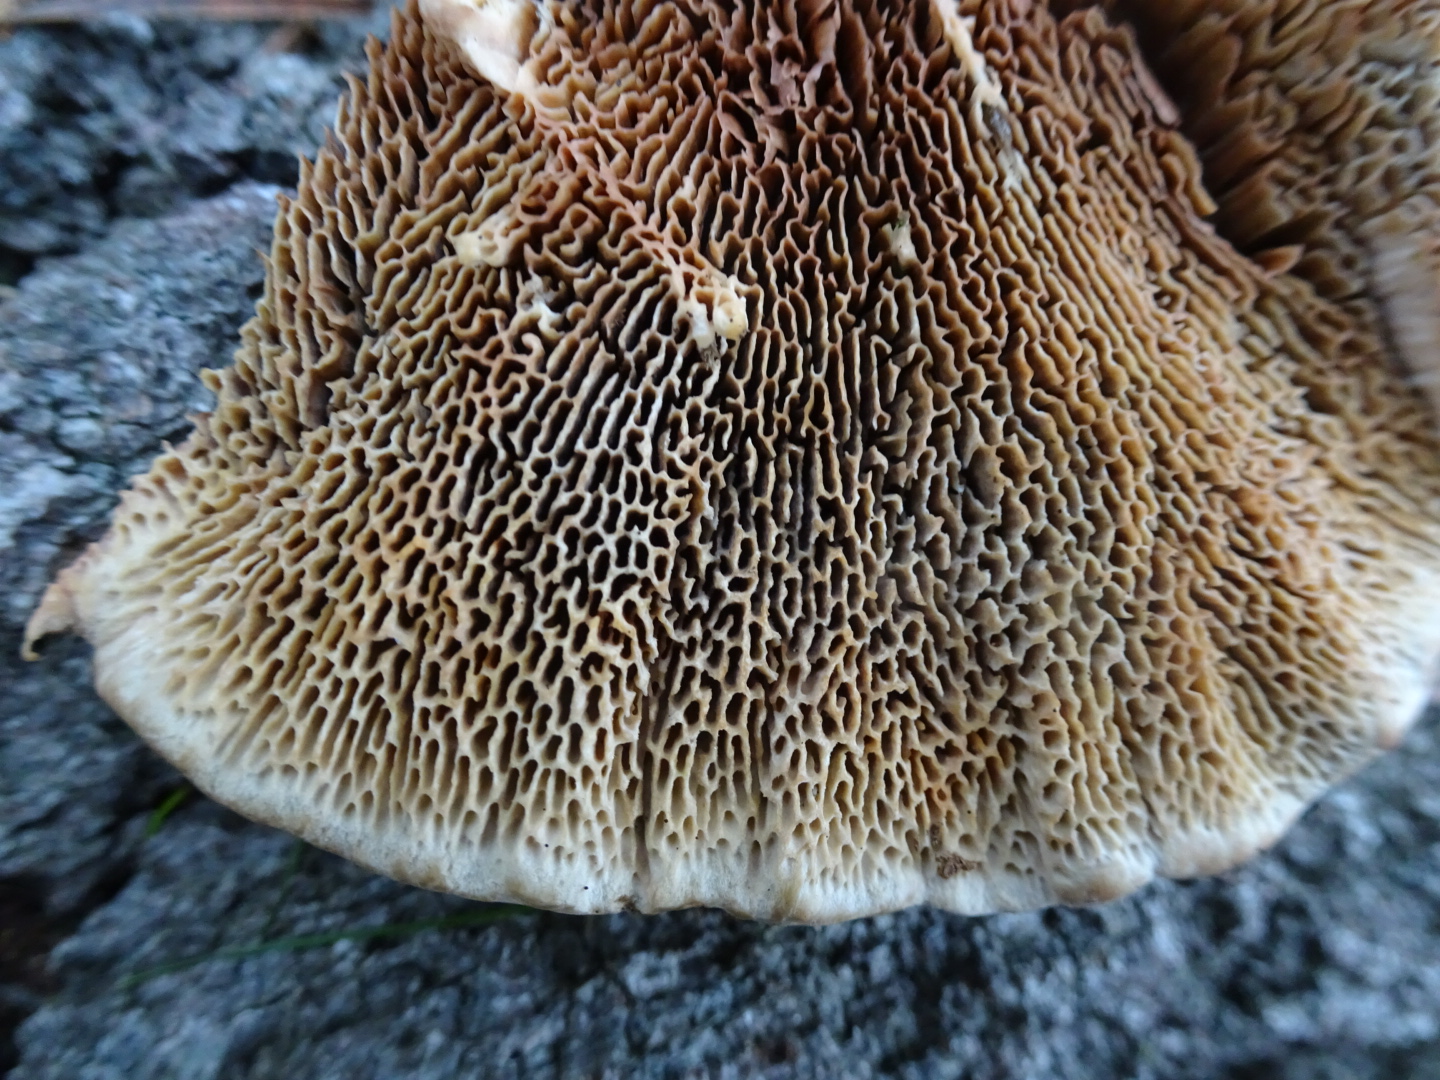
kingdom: Fungi
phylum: Basidiomycota
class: Agaricomycetes
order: Polyporales
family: Polyporaceae
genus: Daedaleopsis
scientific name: Daedaleopsis confragosa
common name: rødmende læderporesvamp
